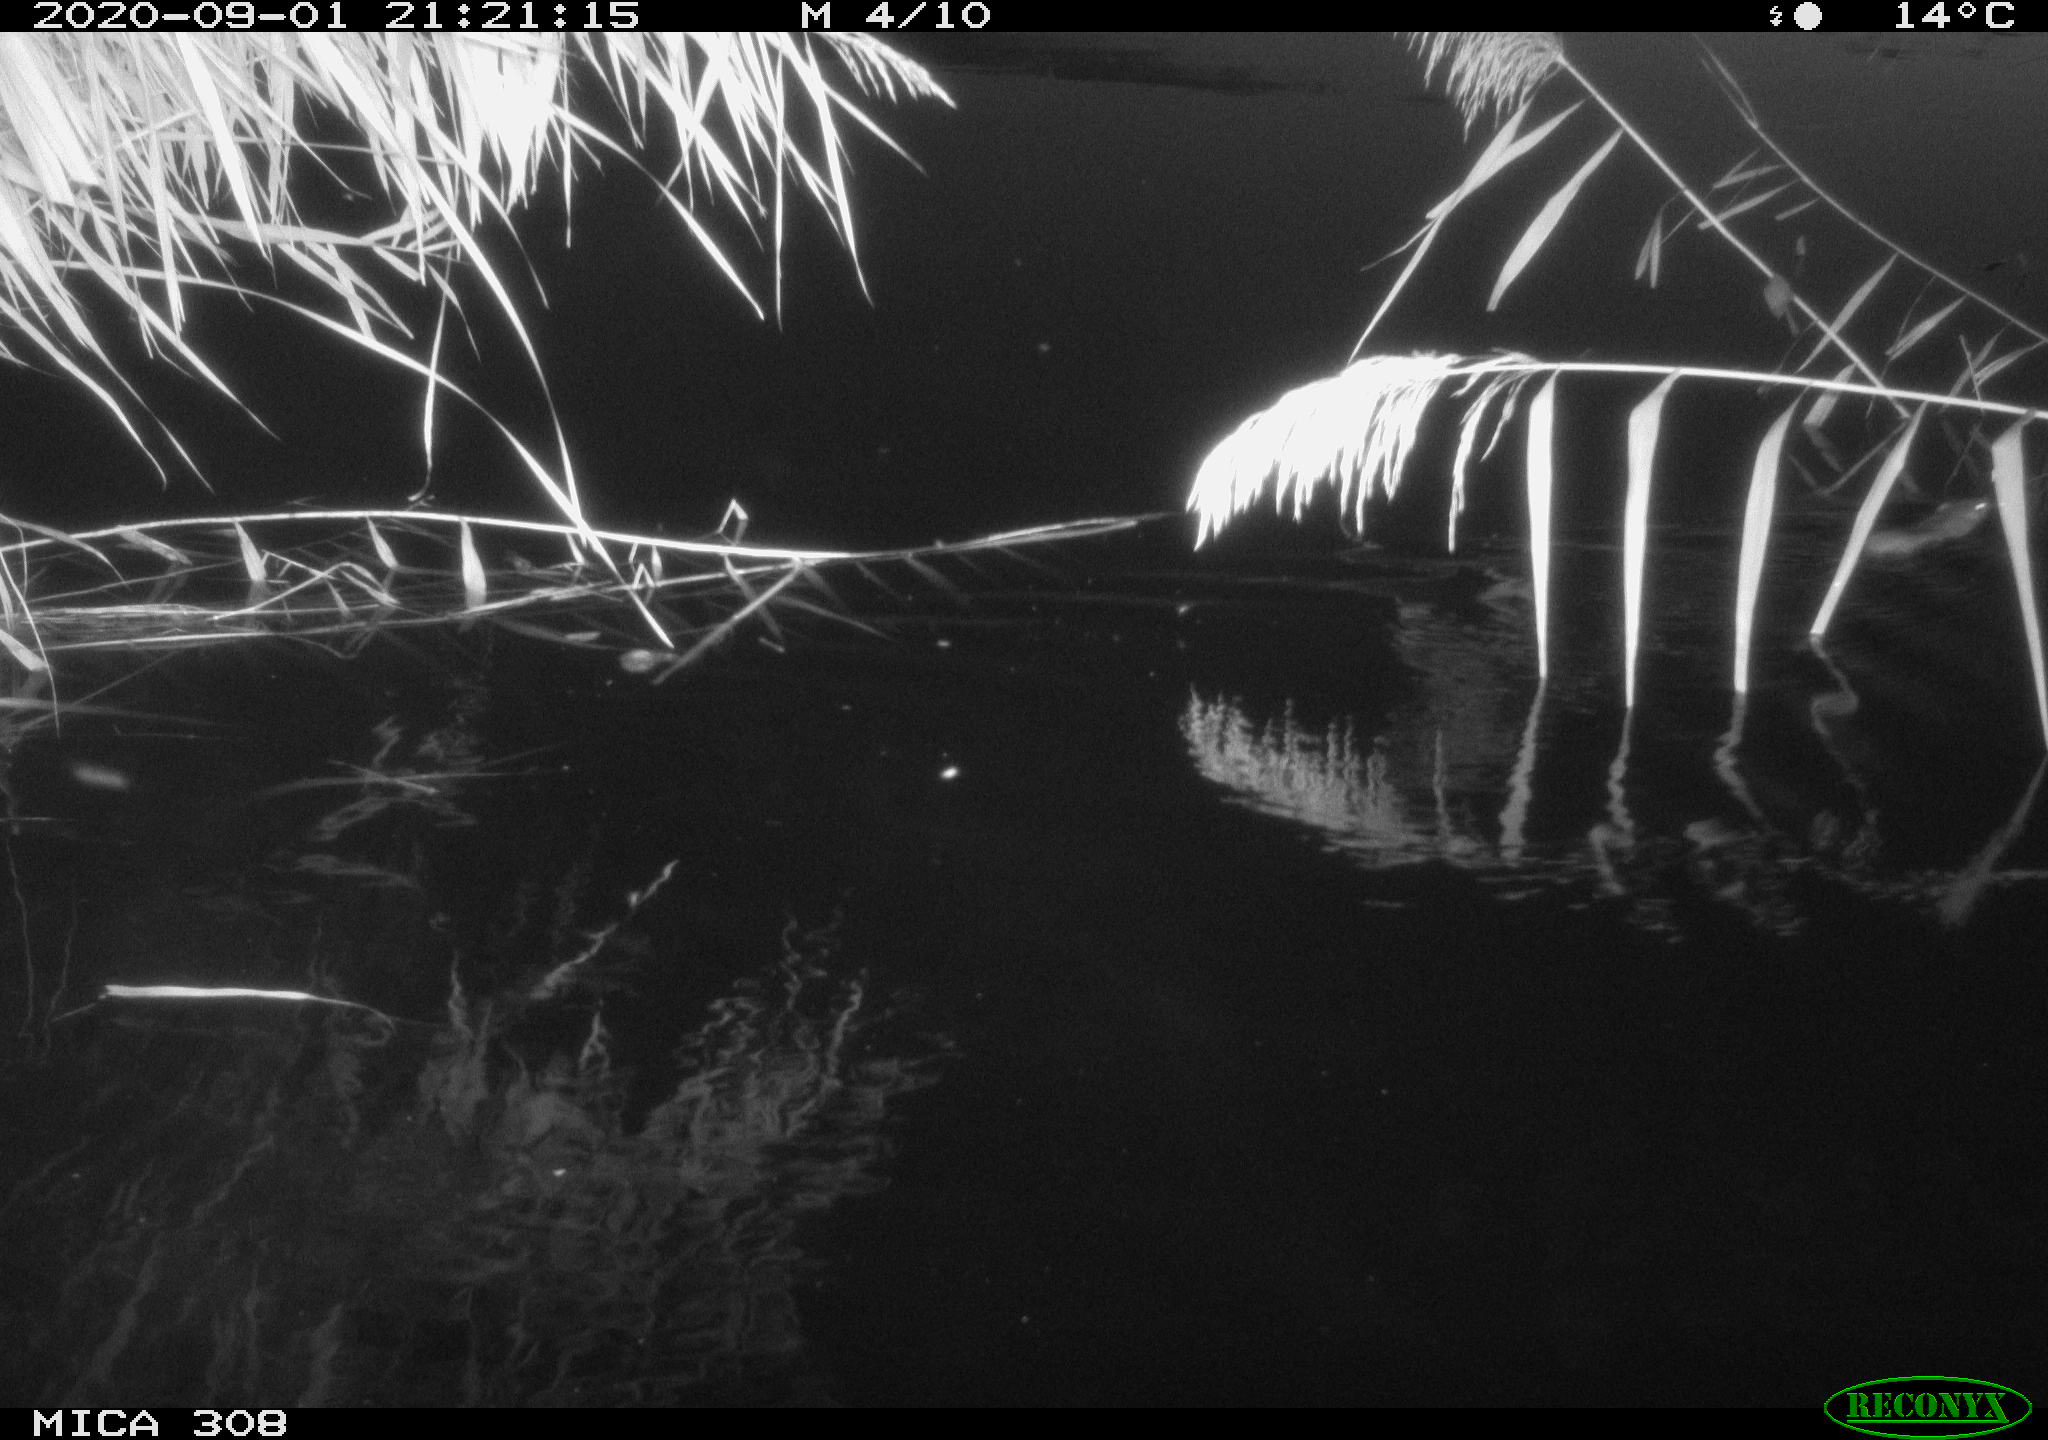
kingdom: Animalia
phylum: Chordata
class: Mammalia
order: Rodentia
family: Muridae
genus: Rattus
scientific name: Rattus norvegicus
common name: Brown rat
